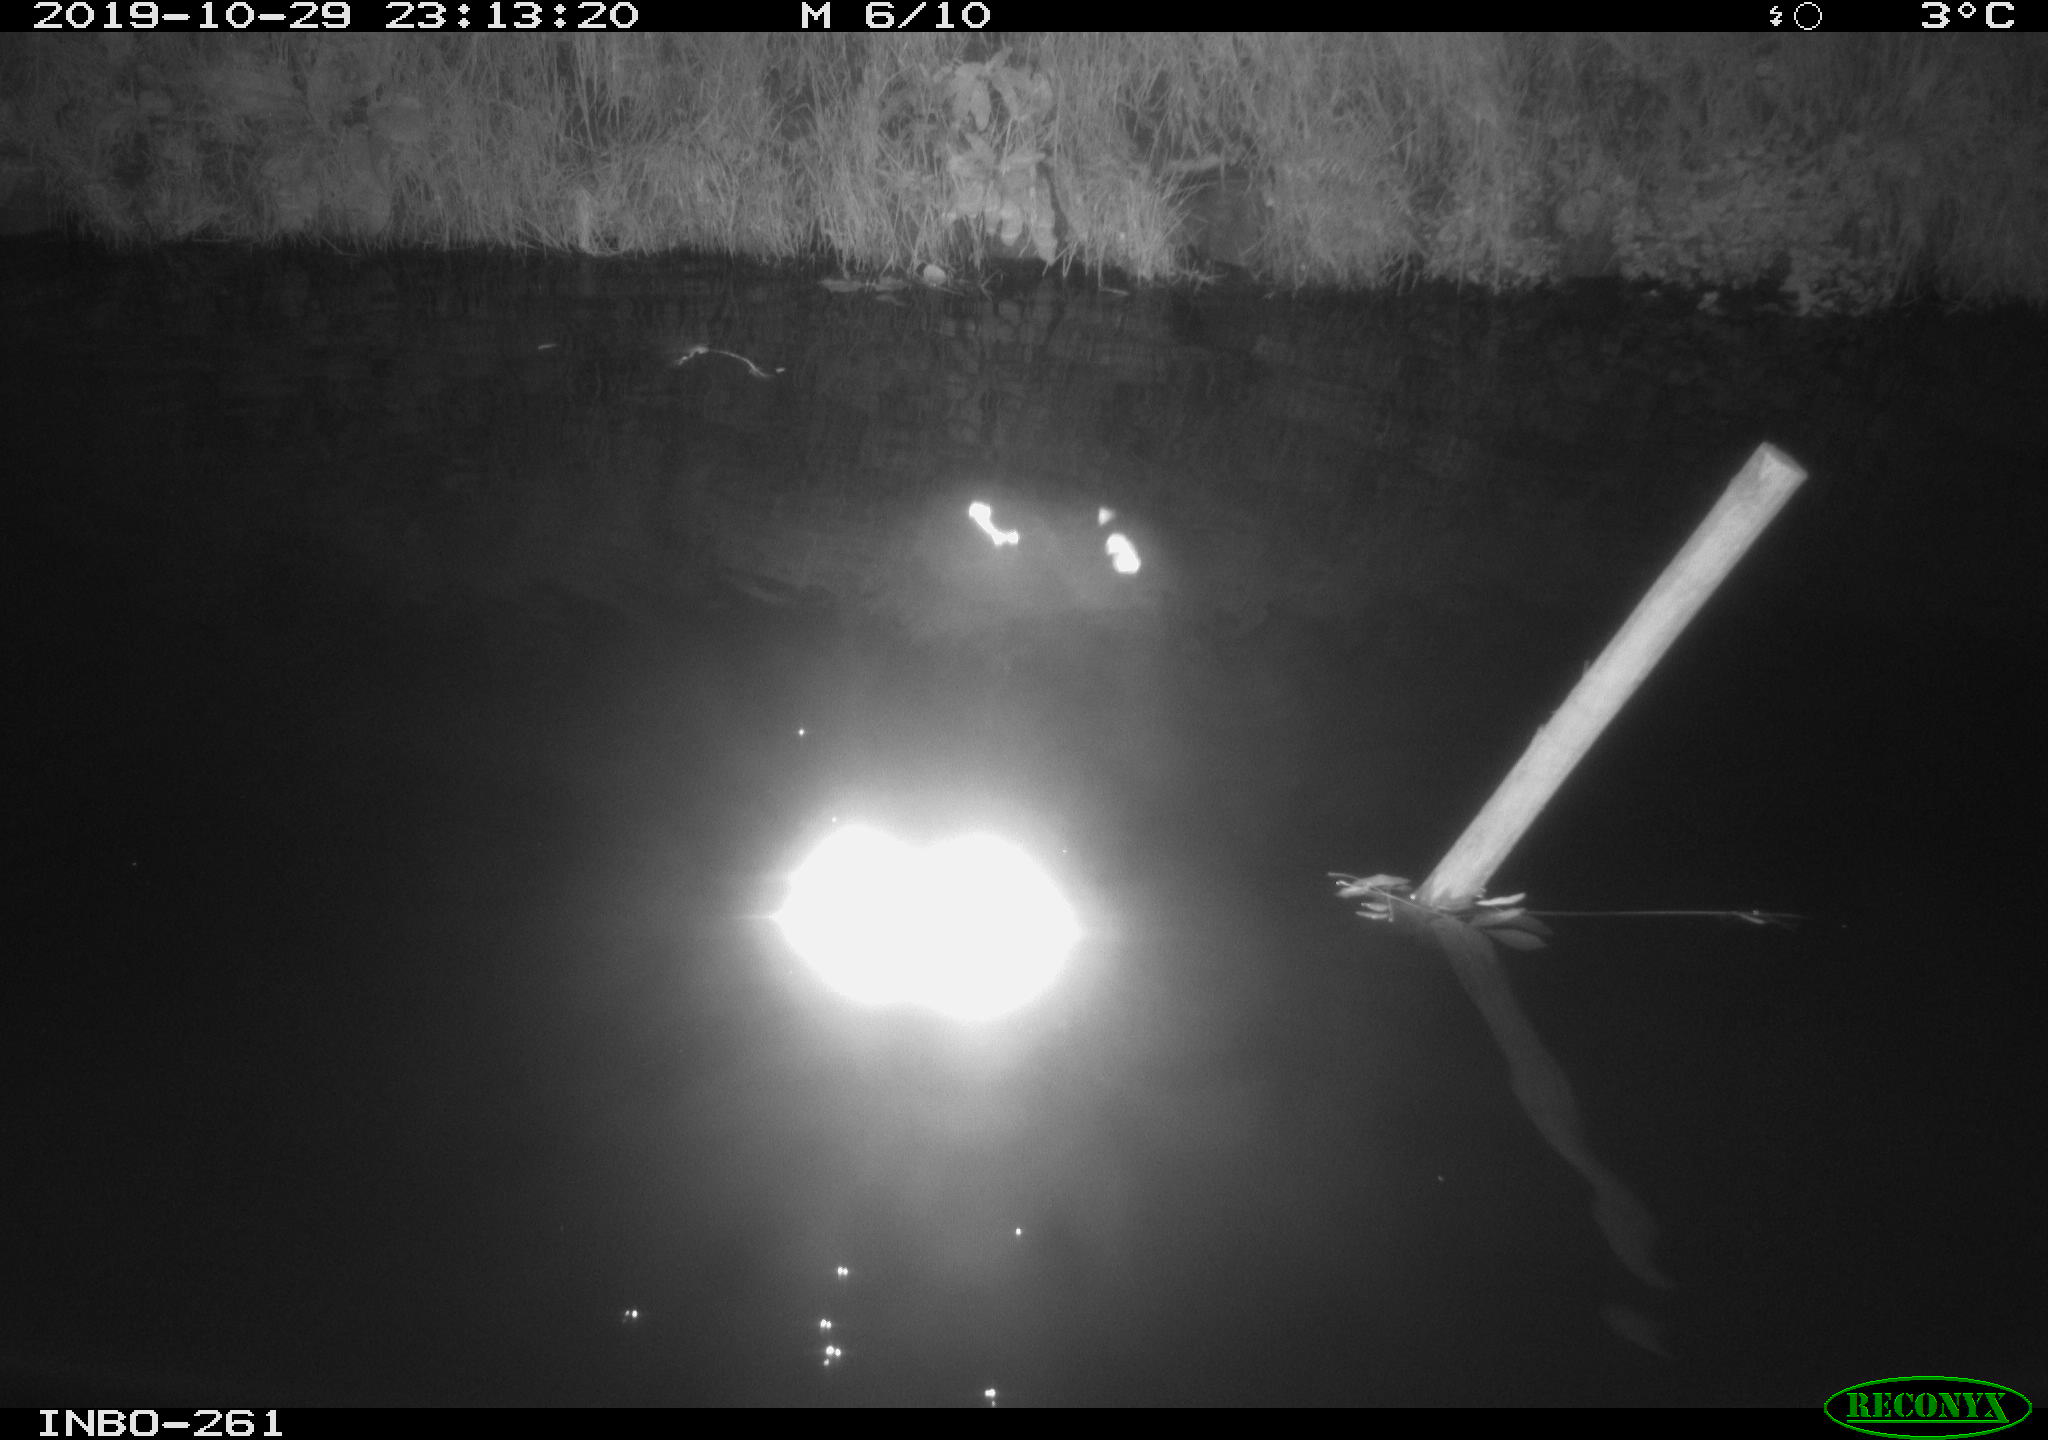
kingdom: Animalia
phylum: Chordata
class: Aves
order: Anseriformes
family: Anatidae
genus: Anas
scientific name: Anas platyrhynchos
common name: Mallard
